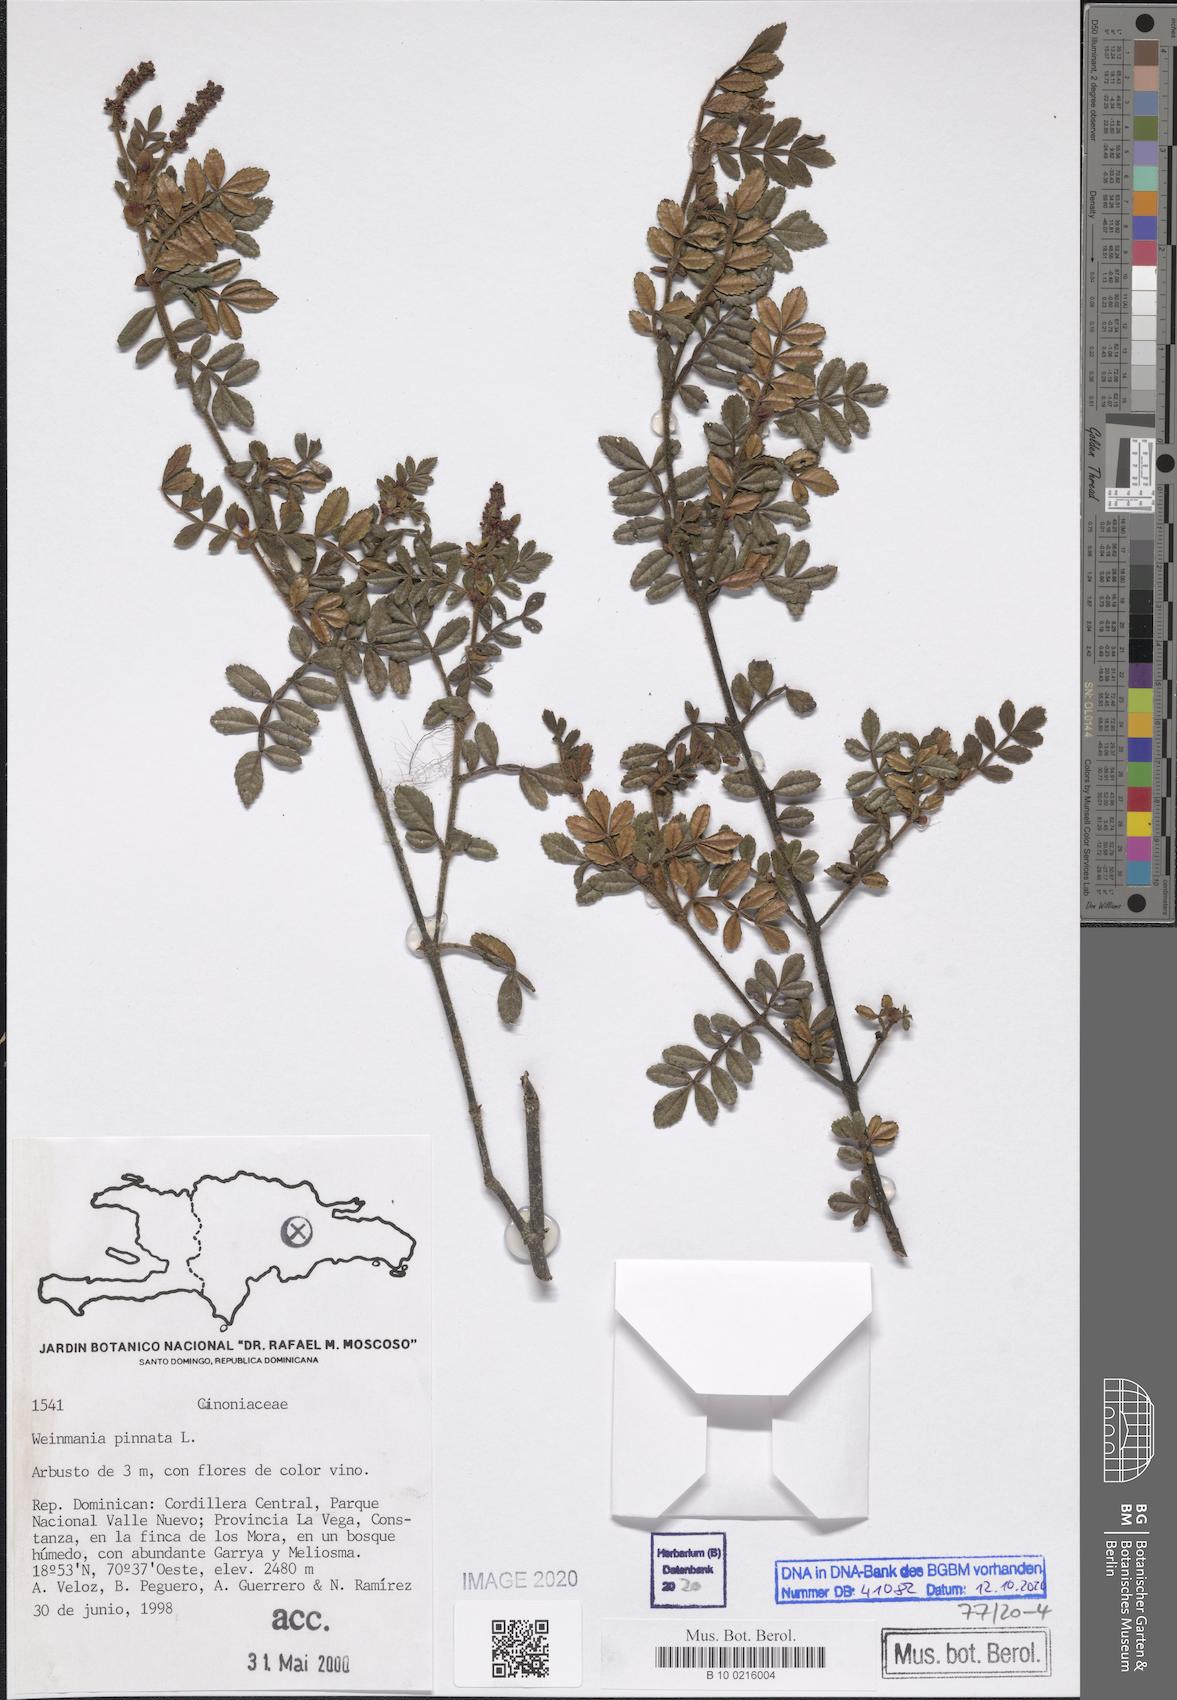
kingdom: Plantae
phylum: Tracheophyta
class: Magnoliopsida
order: Oxalidales
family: Cunoniaceae
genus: Weinmannia
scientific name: Weinmannia pinnata
